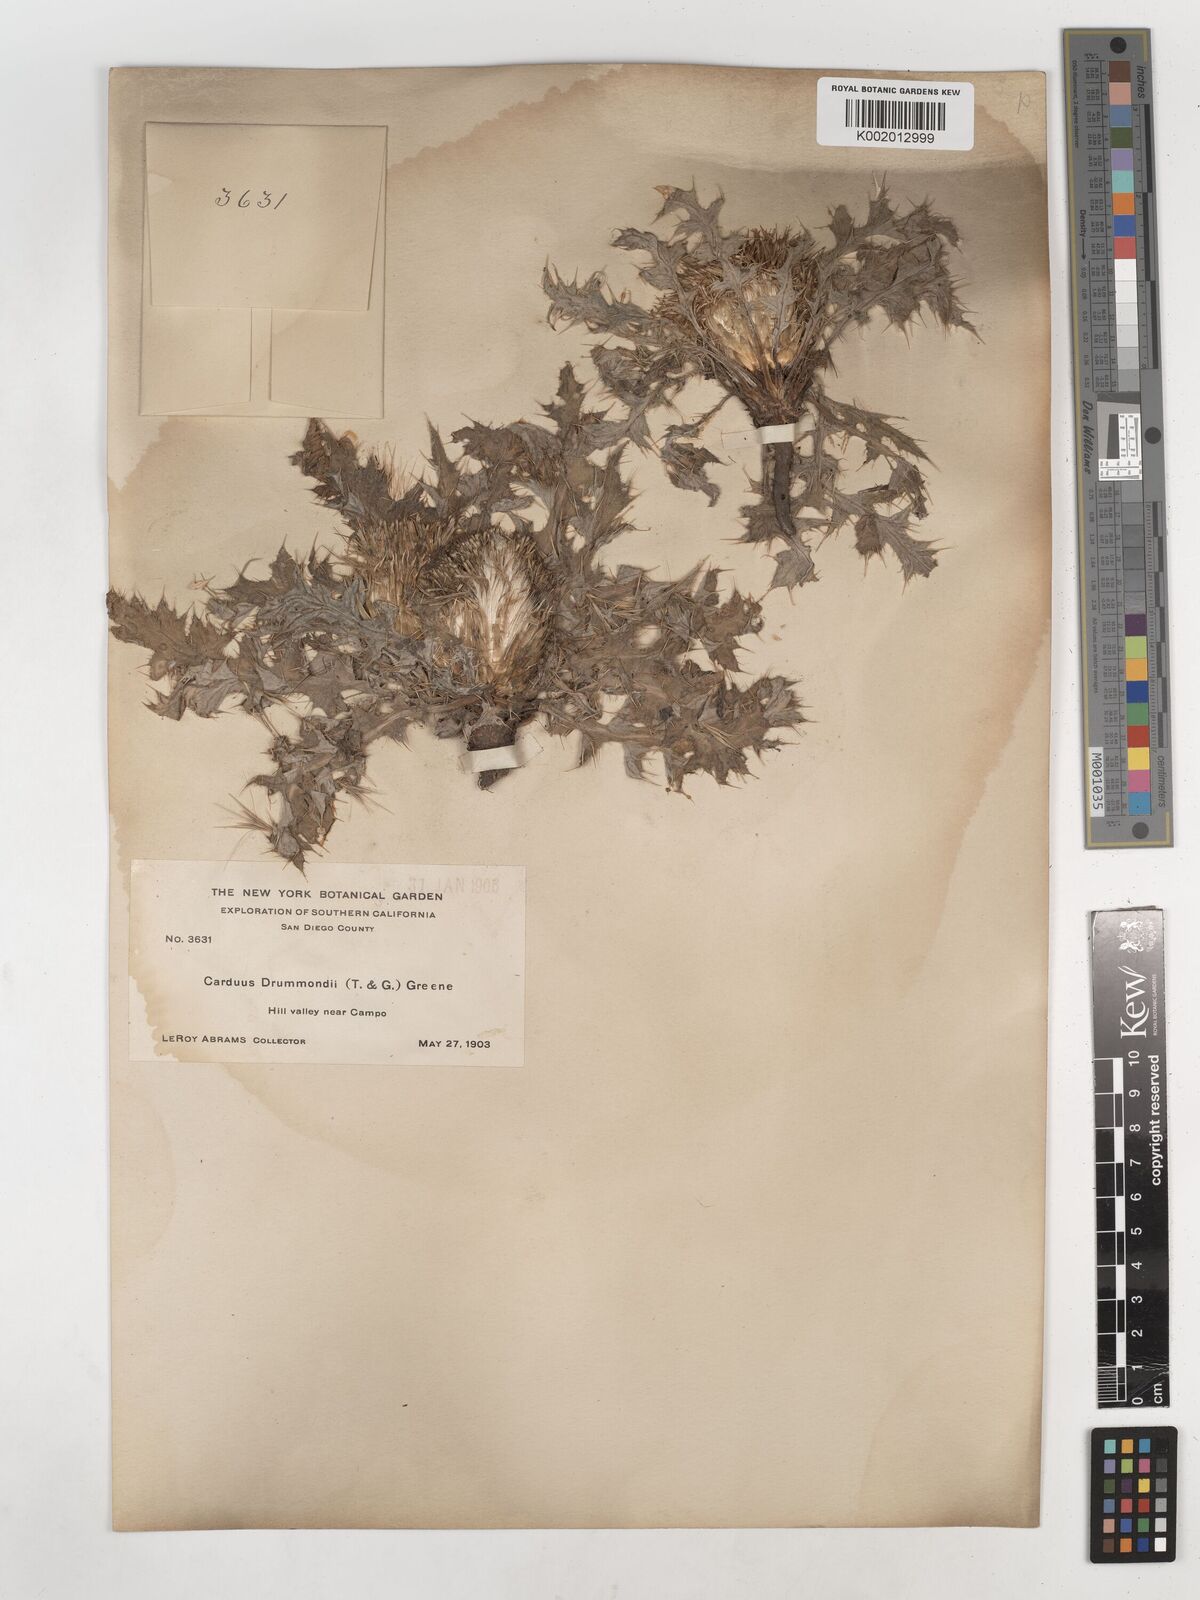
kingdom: Plantae
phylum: Tracheophyta
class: Magnoliopsida
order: Asterales
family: Asteraceae
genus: Cirsium
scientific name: Cirsium drummondii
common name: Drummond's thistle
